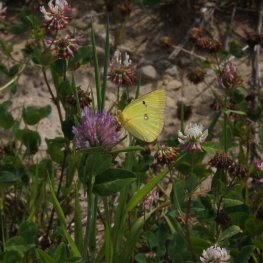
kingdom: Animalia
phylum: Arthropoda
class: Insecta
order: Lepidoptera
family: Pieridae
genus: Colias
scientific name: Colias philodice
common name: Clouded Sulphur
